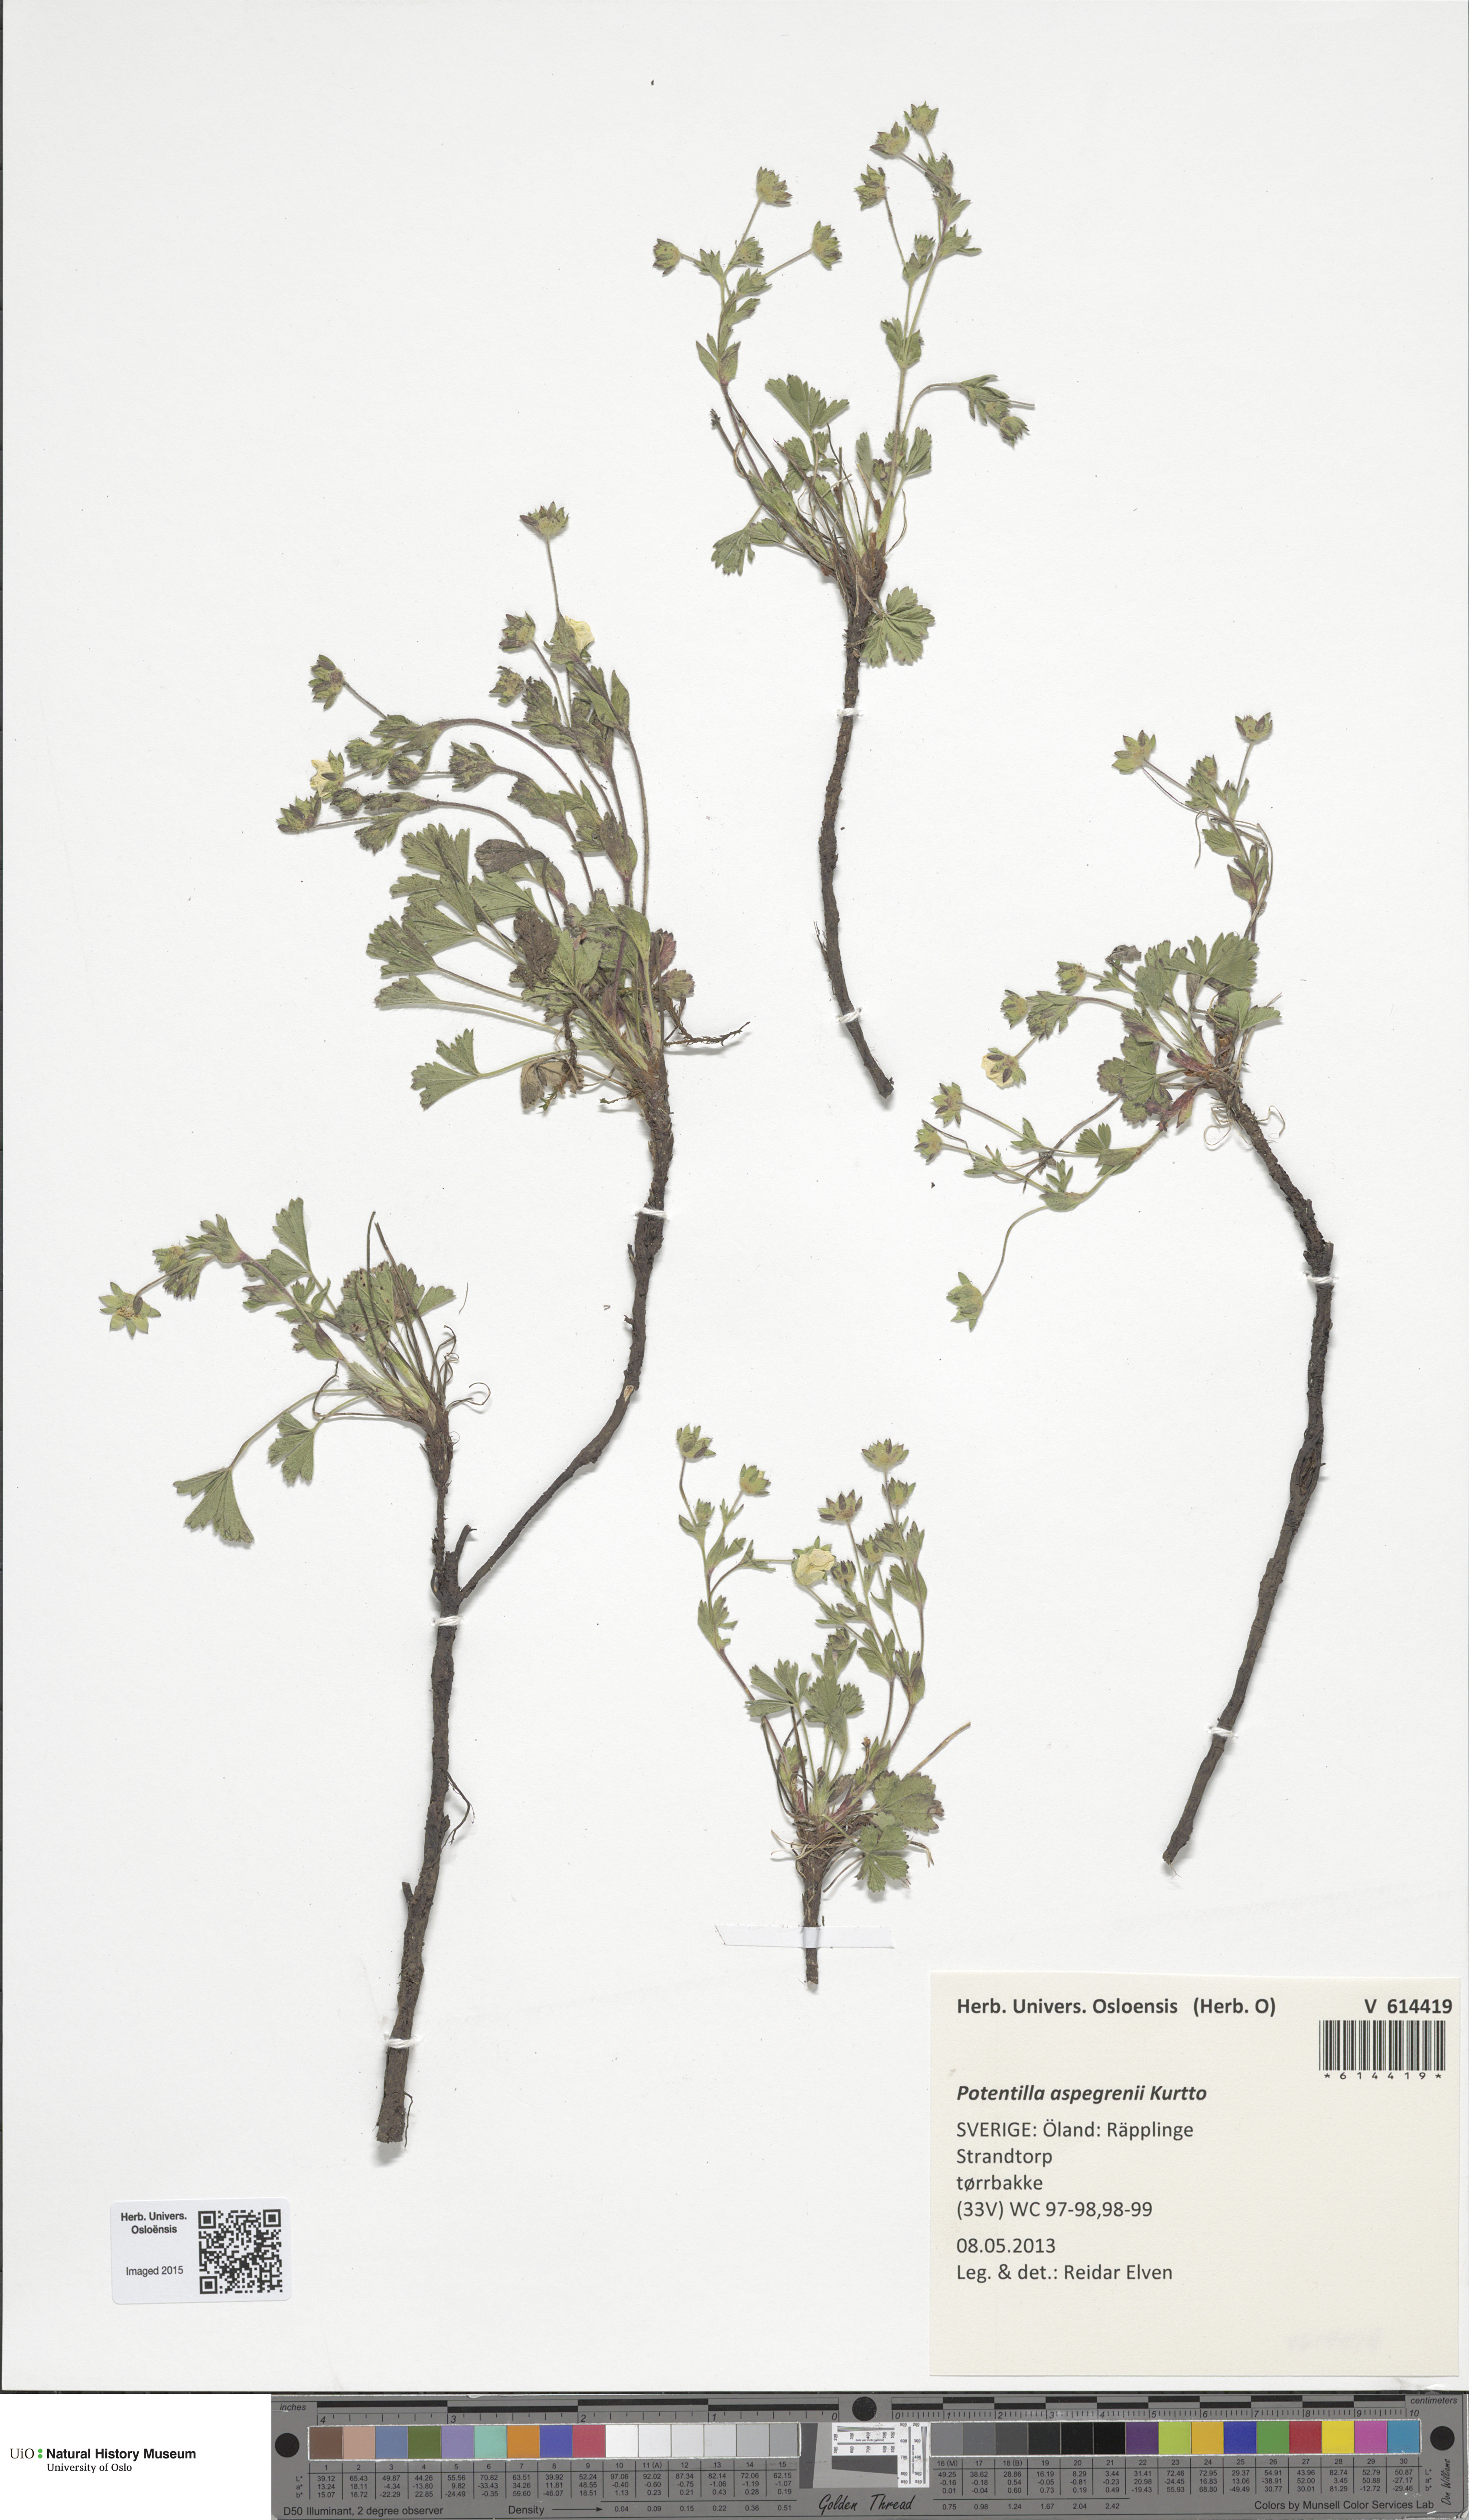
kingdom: Plantae
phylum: Tracheophyta
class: Magnoliopsida
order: Rosales
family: Rosaceae
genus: Potentilla
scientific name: Potentilla aspegrenii
